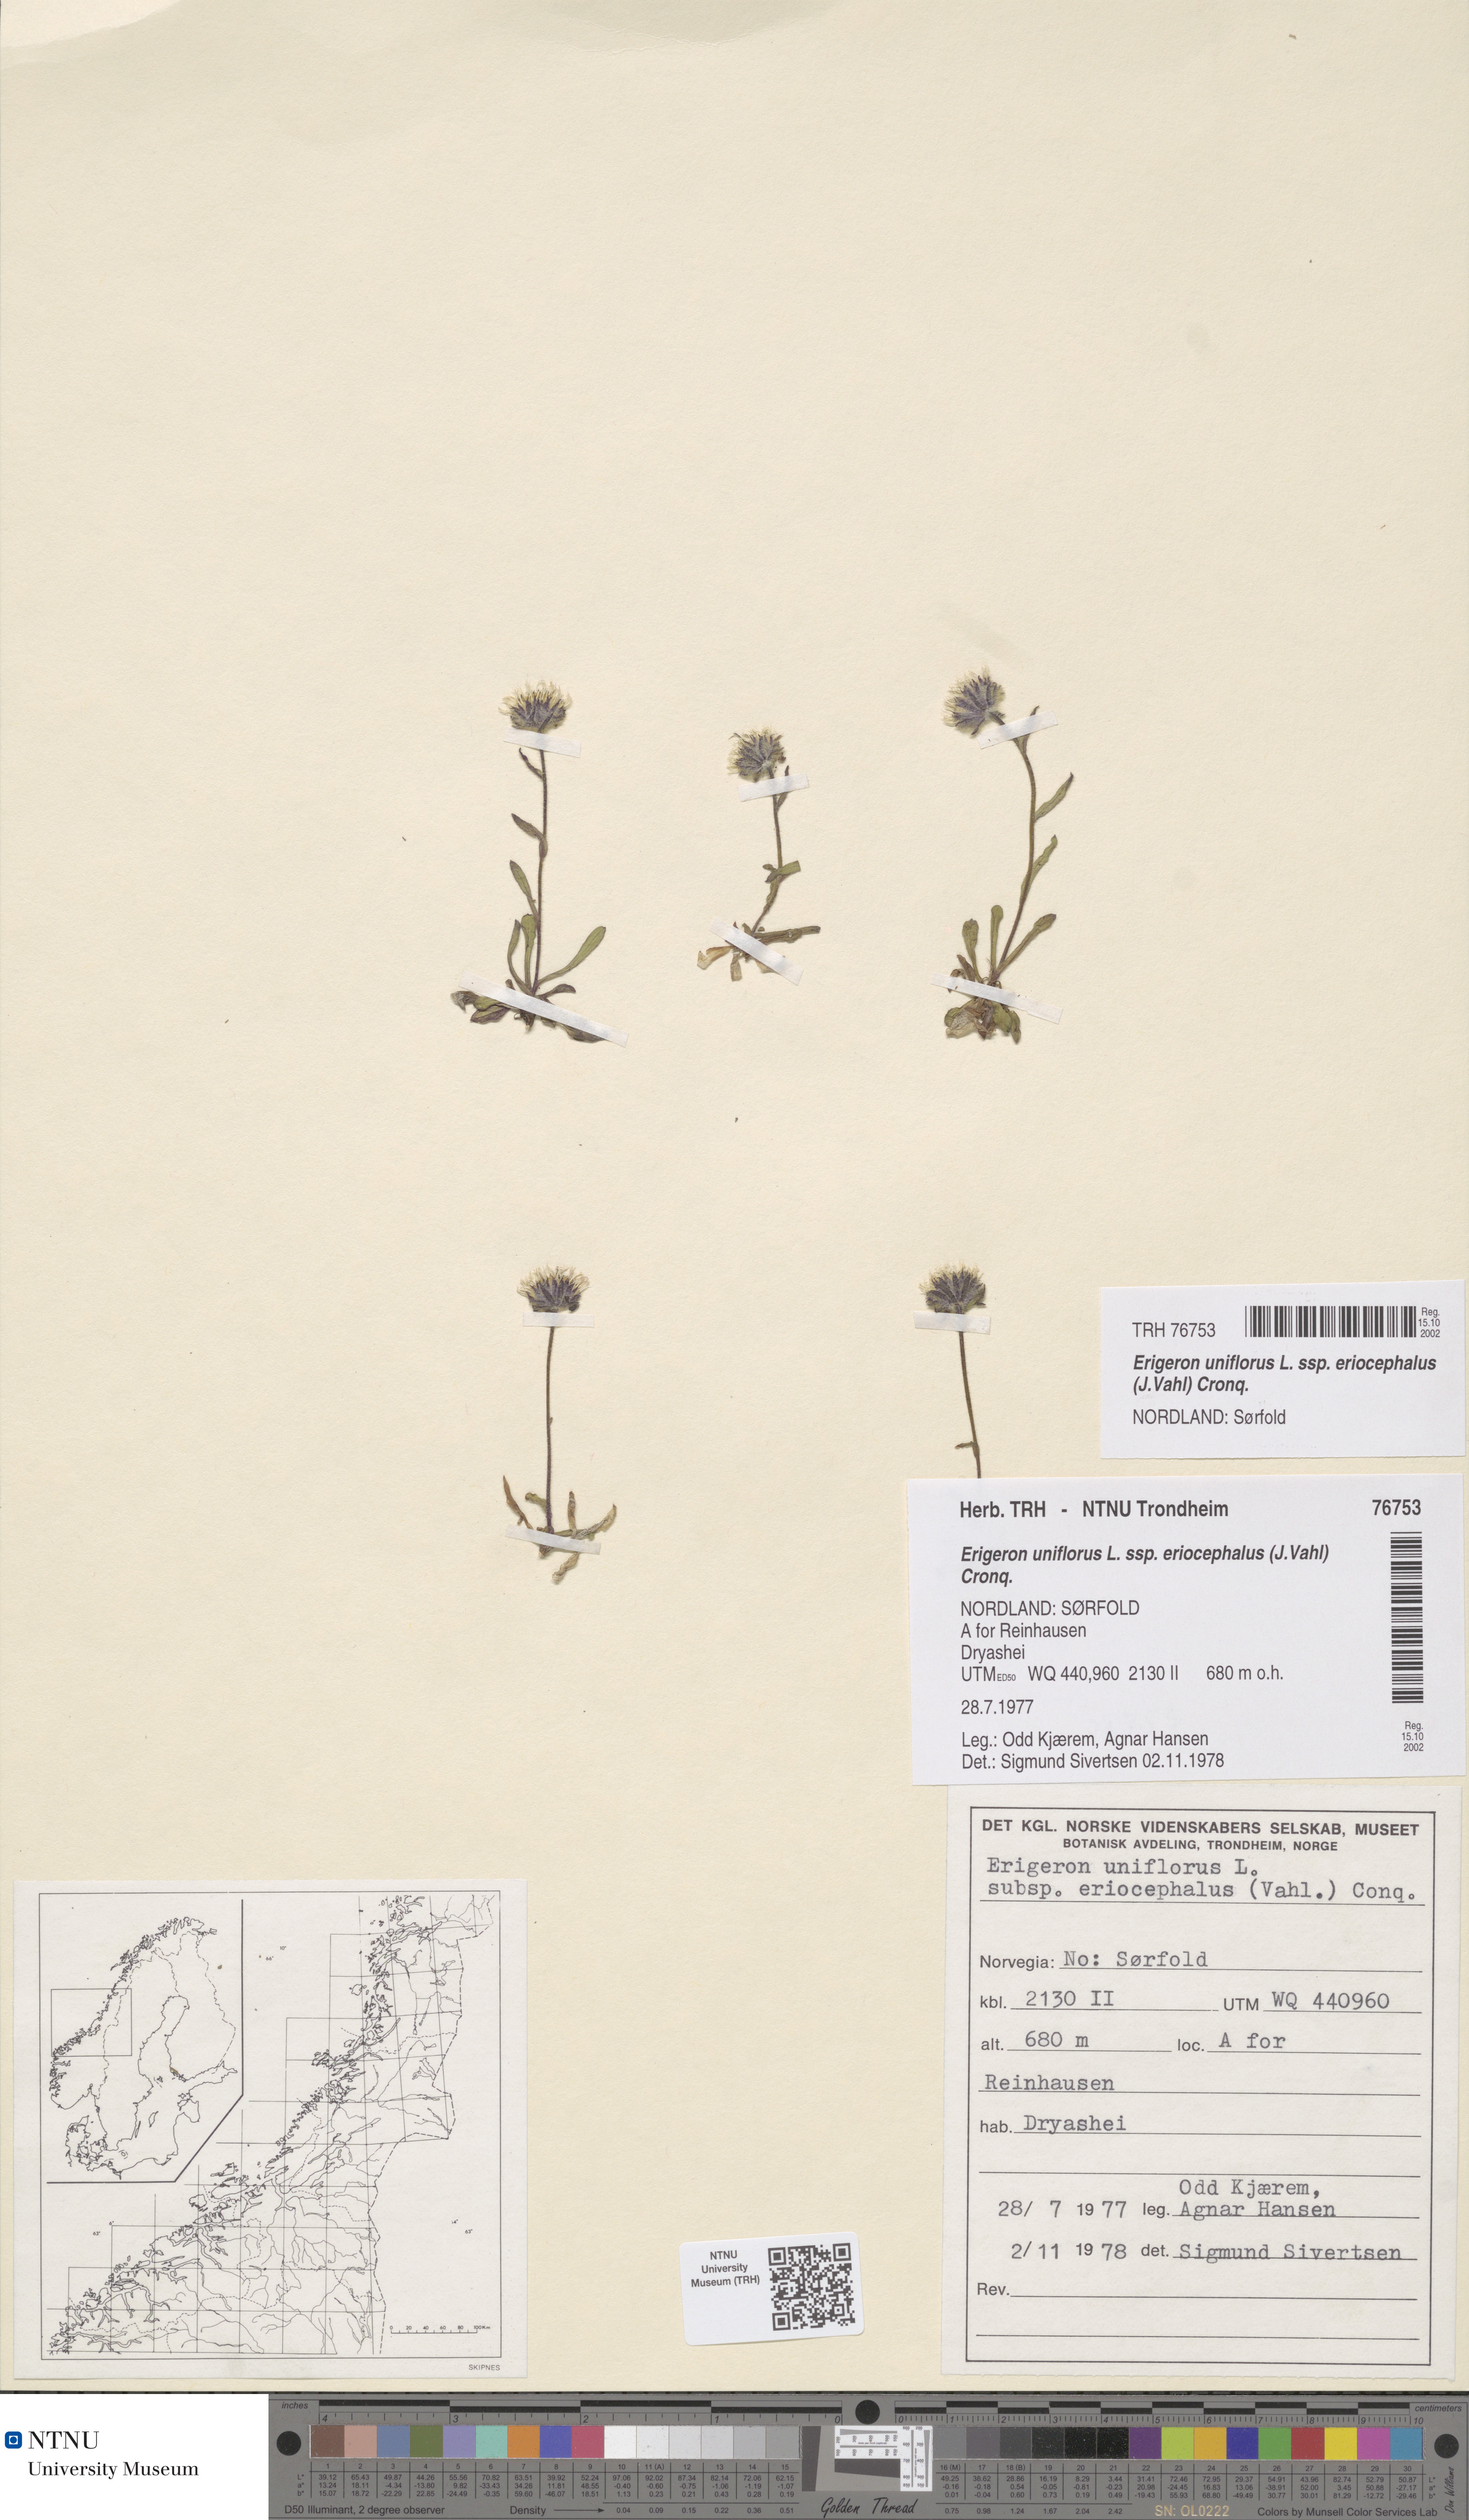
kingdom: Plantae
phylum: Tracheophyta
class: Magnoliopsida
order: Asterales
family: Asteraceae
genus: Erigeron
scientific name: Erigeron eriocephalus
